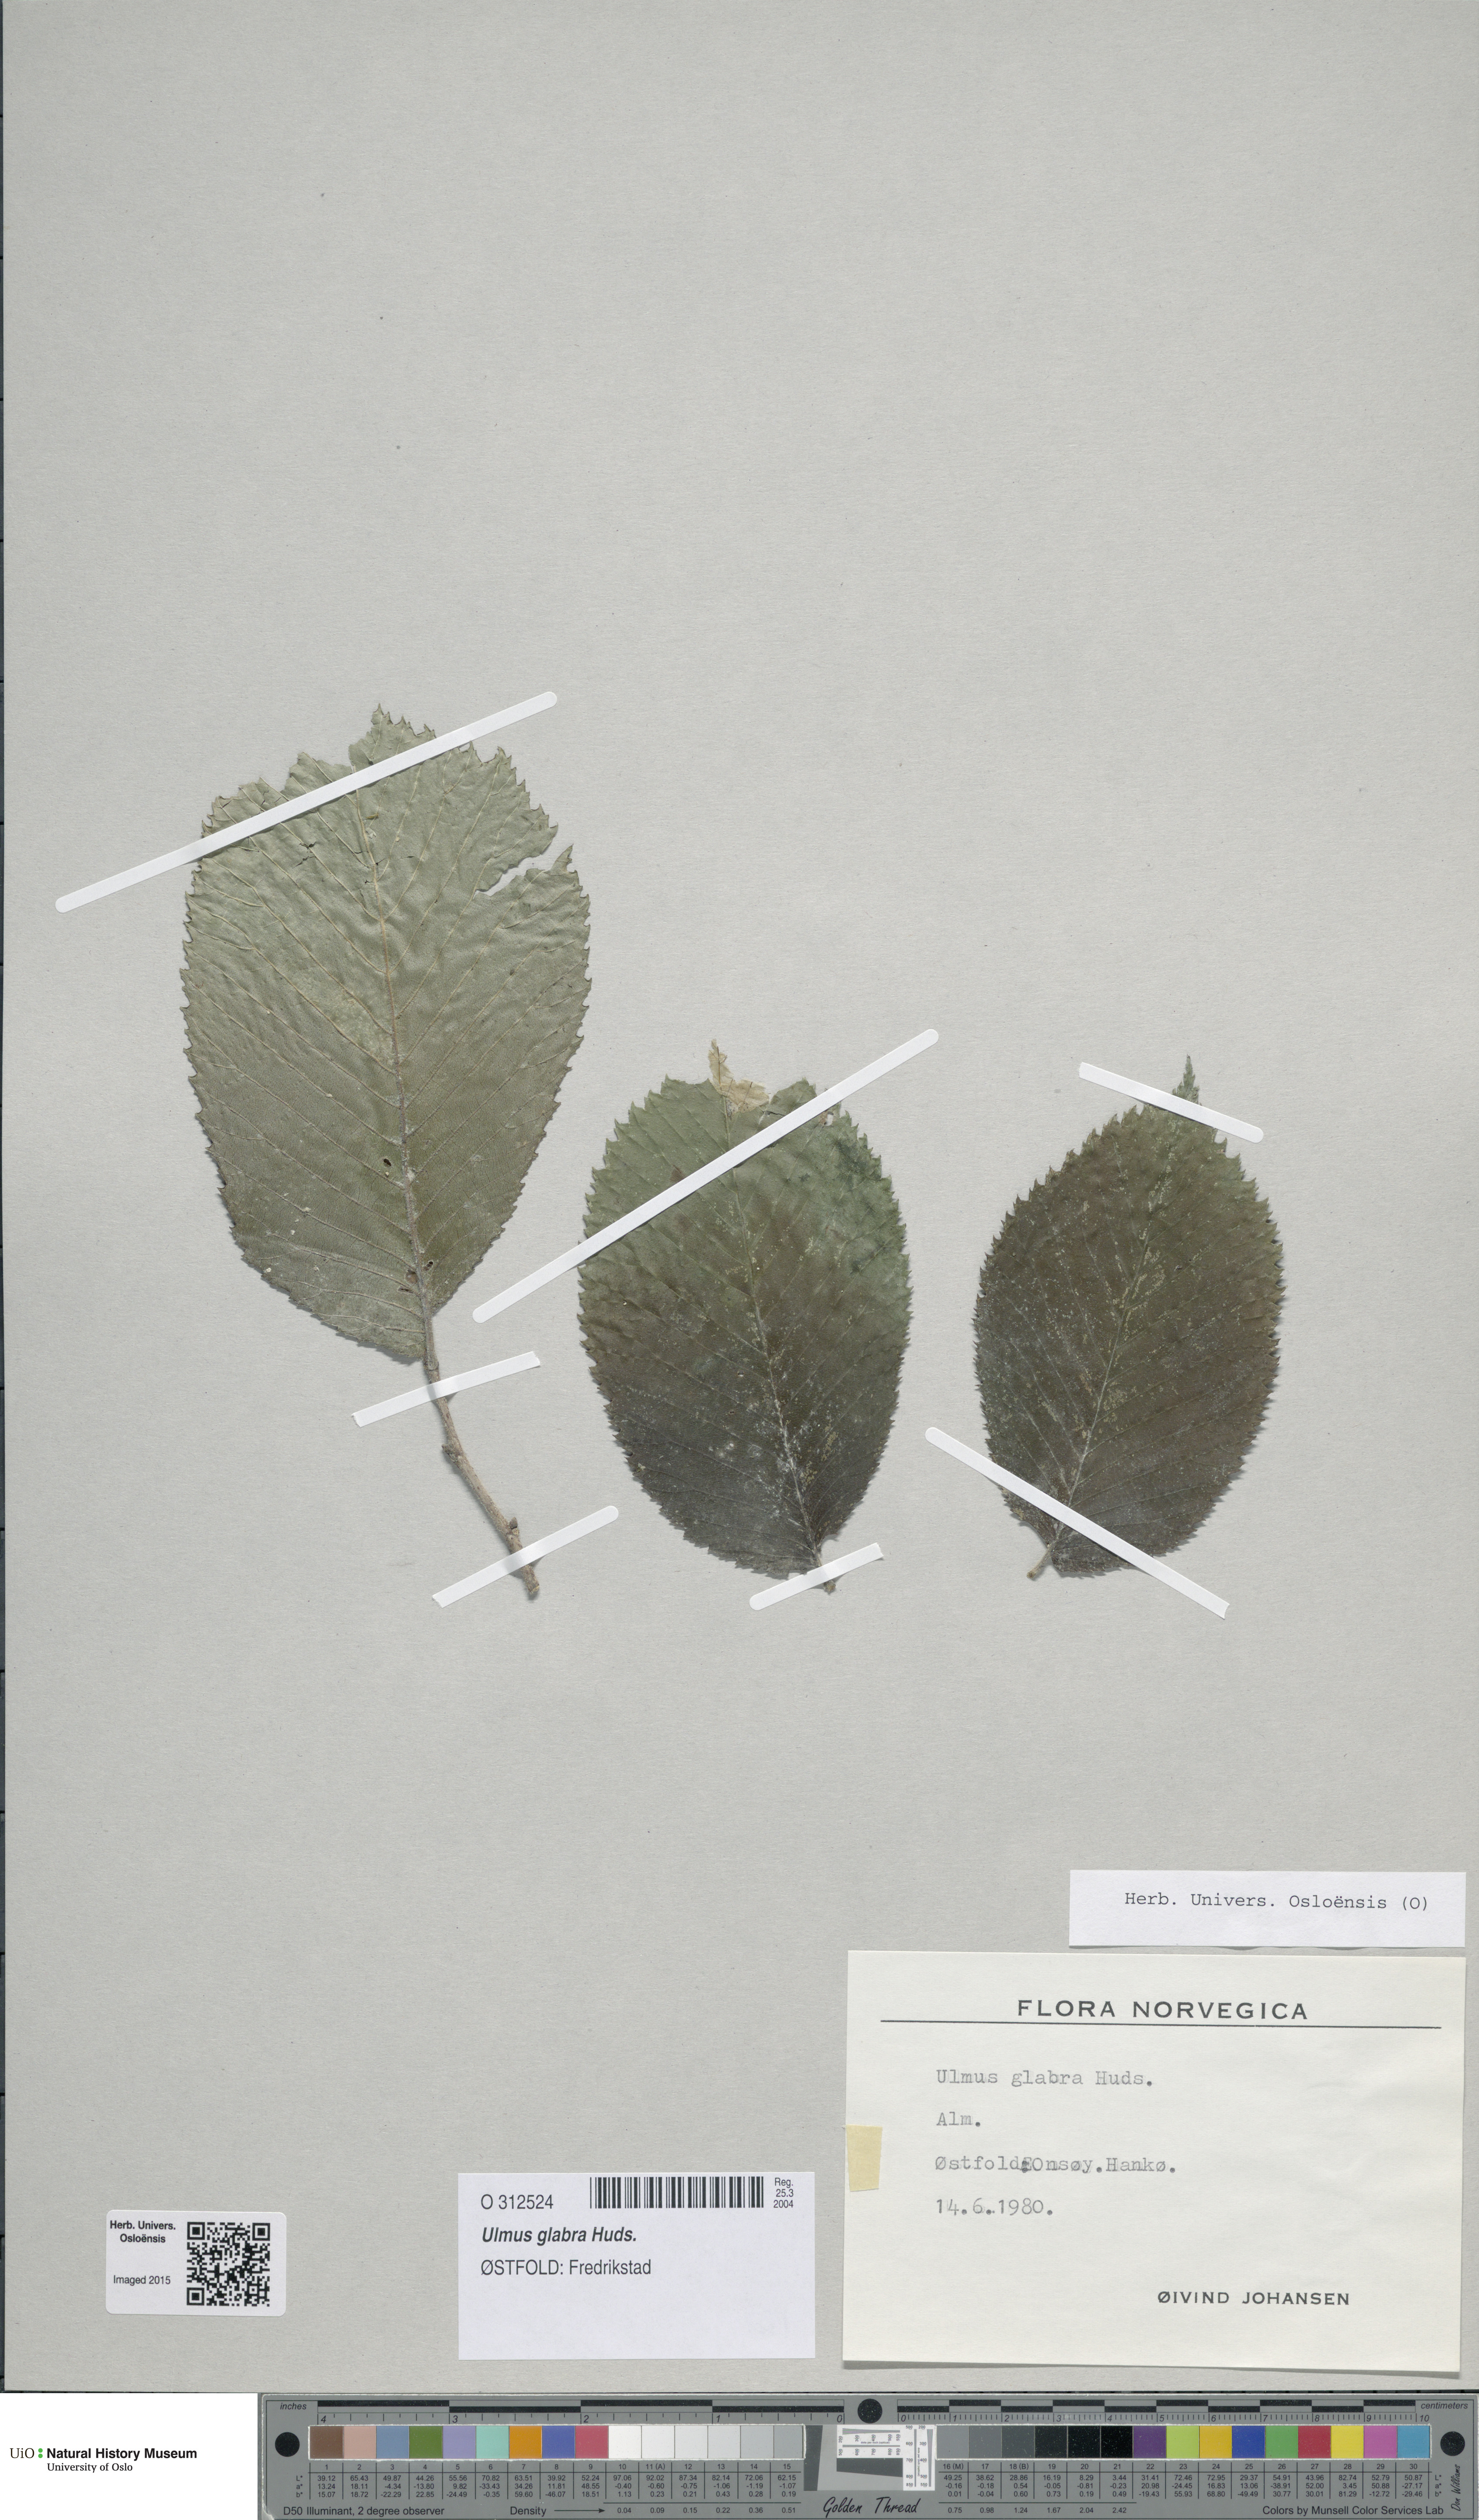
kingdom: Plantae
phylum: Tracheophyta
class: Magnoliopsida
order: Rosales
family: Ulmaceae
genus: Ulmus
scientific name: Ulmus glabra
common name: Wych elm
